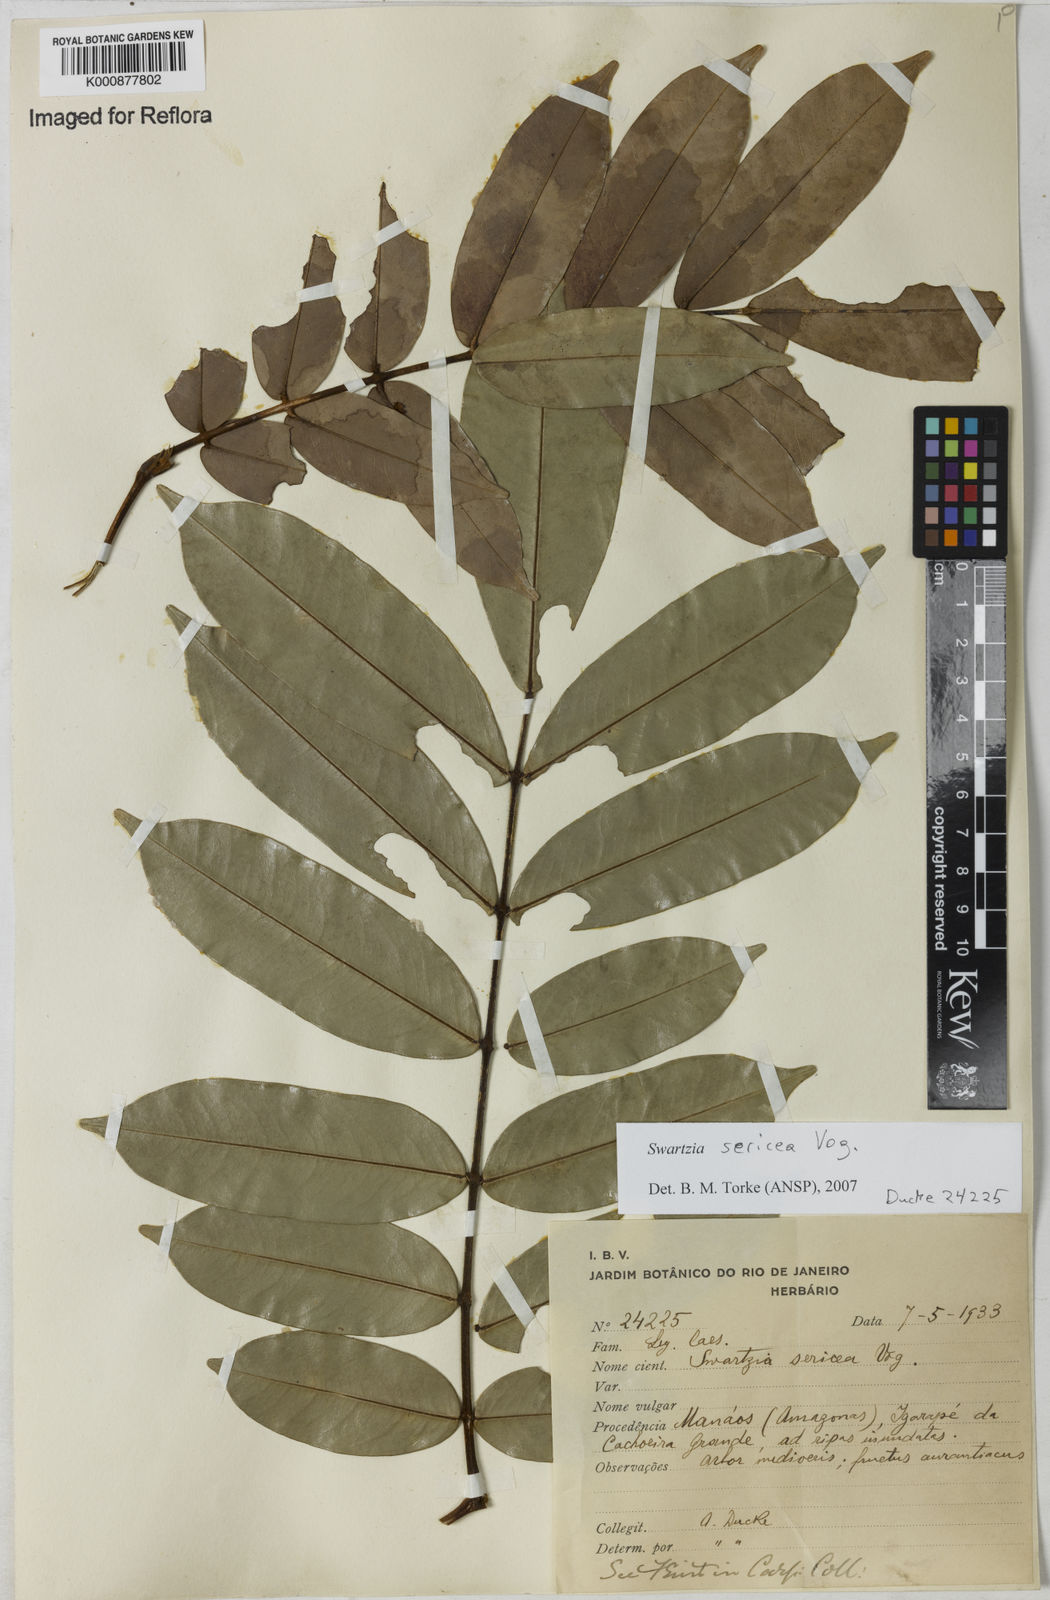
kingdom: Plantae
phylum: Tracheophyta
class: Magnoliopsida
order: Fabales
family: Fabaceae
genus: Swartzia
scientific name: Swartzia sericea
